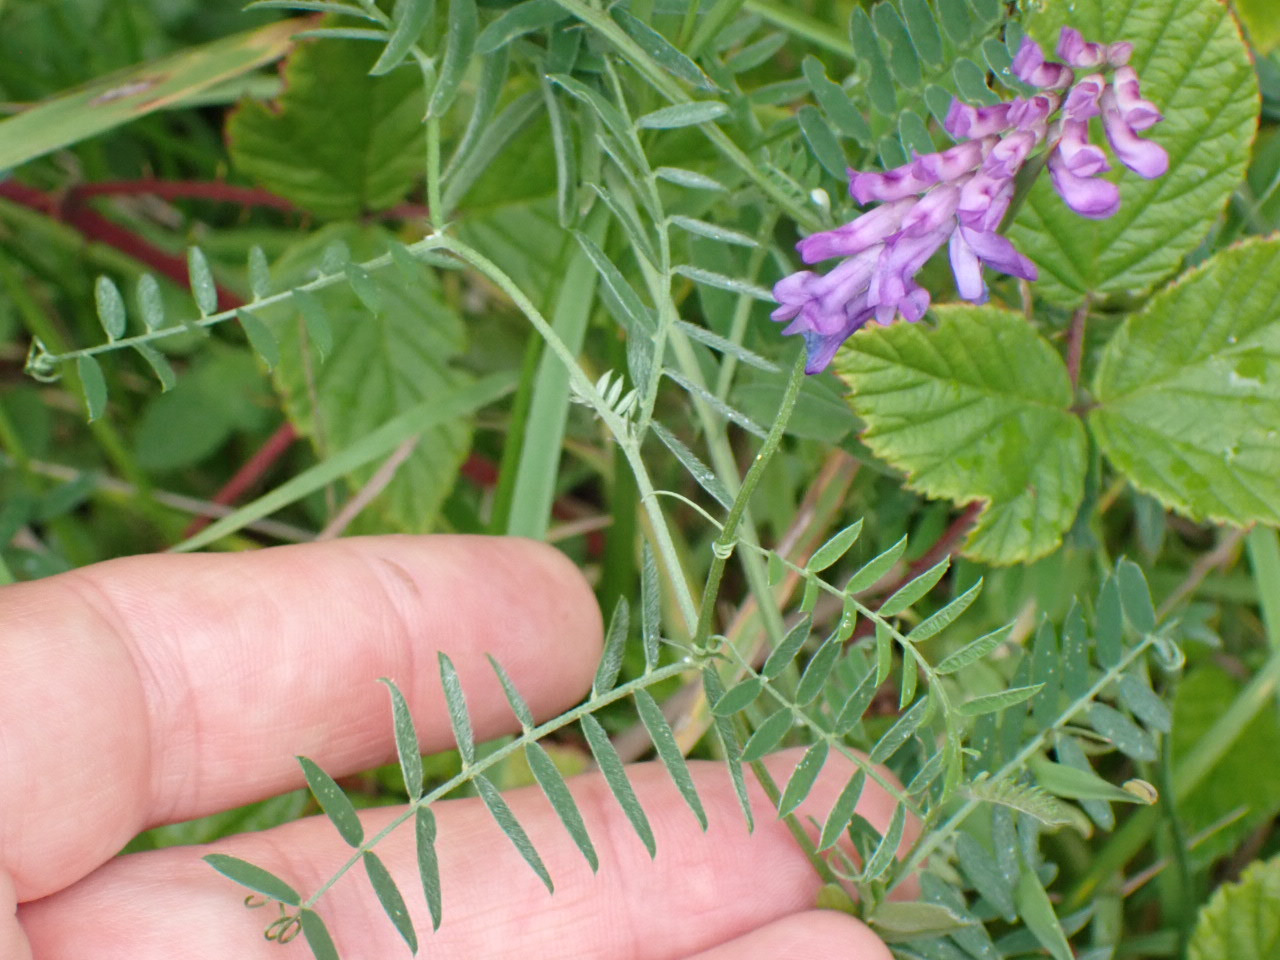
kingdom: Plantae
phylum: Tracheophyta
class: Magnoliopsida
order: Fabales
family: Fabaceae
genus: Vicia
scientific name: Vicia cracca
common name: Muse-vikke
